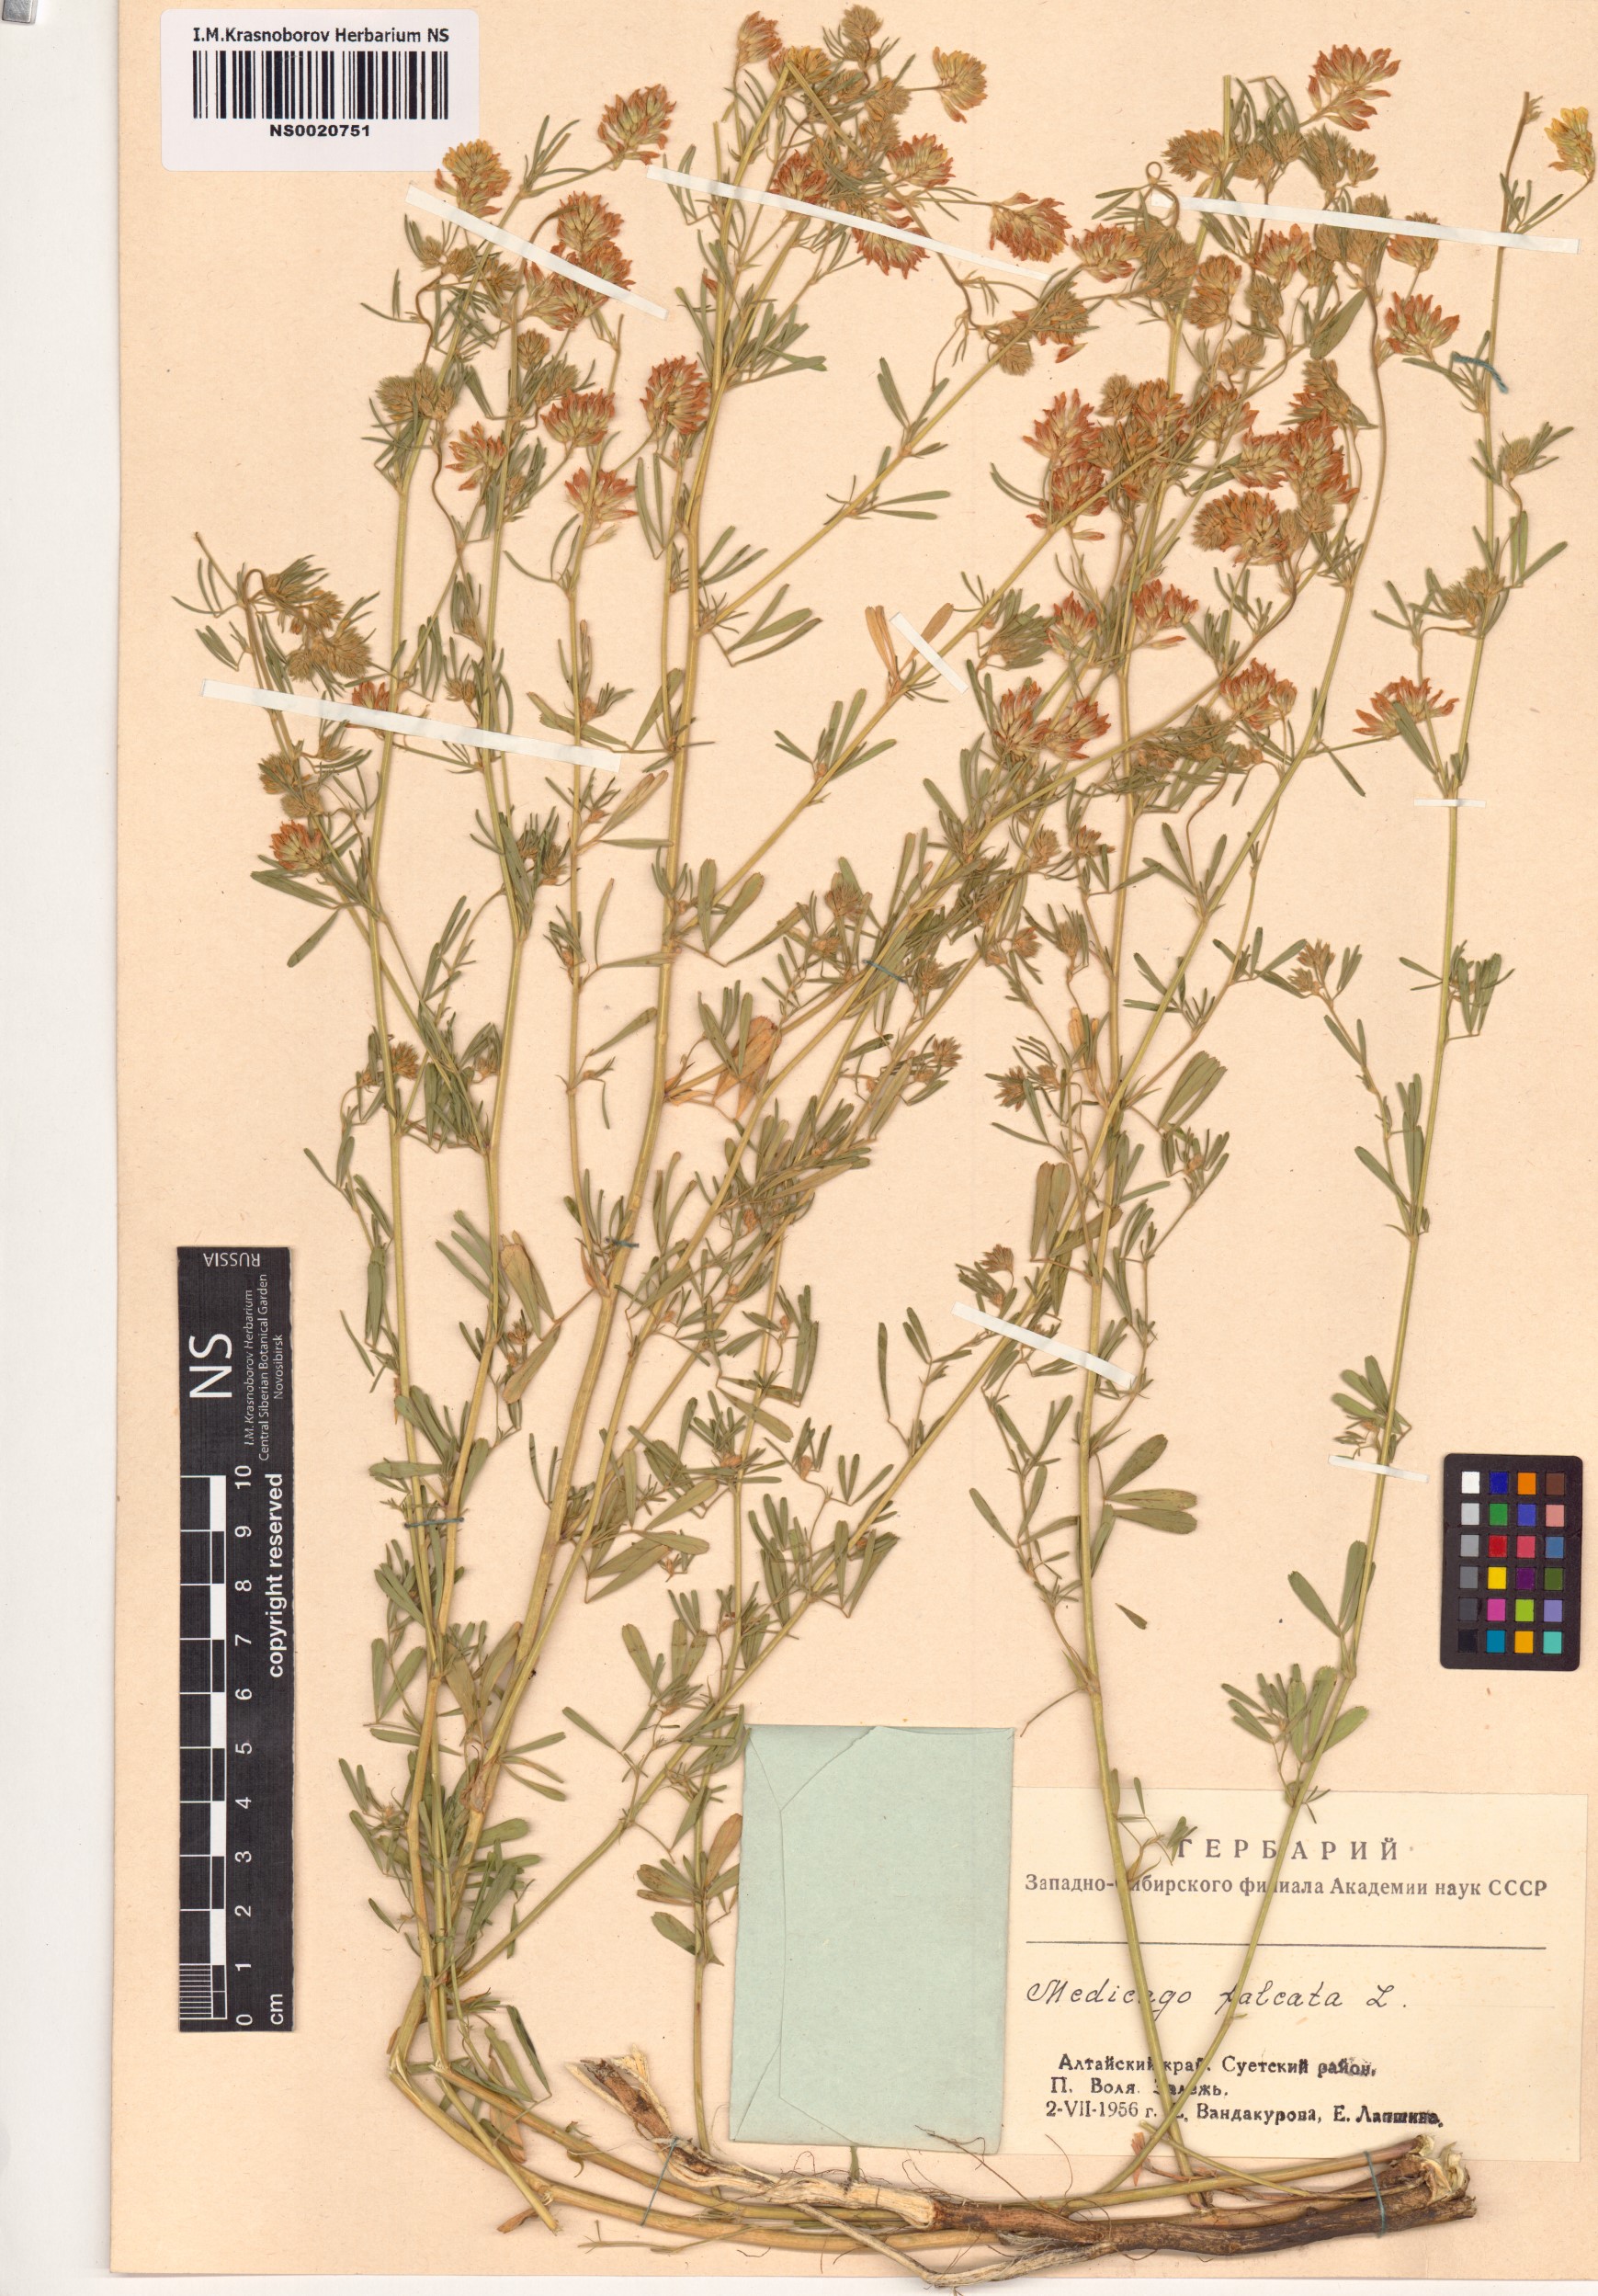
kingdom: Plantae
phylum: Tracheophyta
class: Magnoliopsida
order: Fabales
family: Fabaceae
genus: Medicago
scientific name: Medicago falcata
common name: Sickle medick
